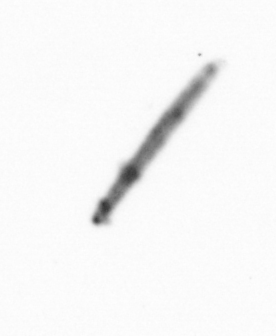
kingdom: Chromista
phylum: Ochrophyta
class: Bacillariophyceae
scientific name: Bacillariophyceae
